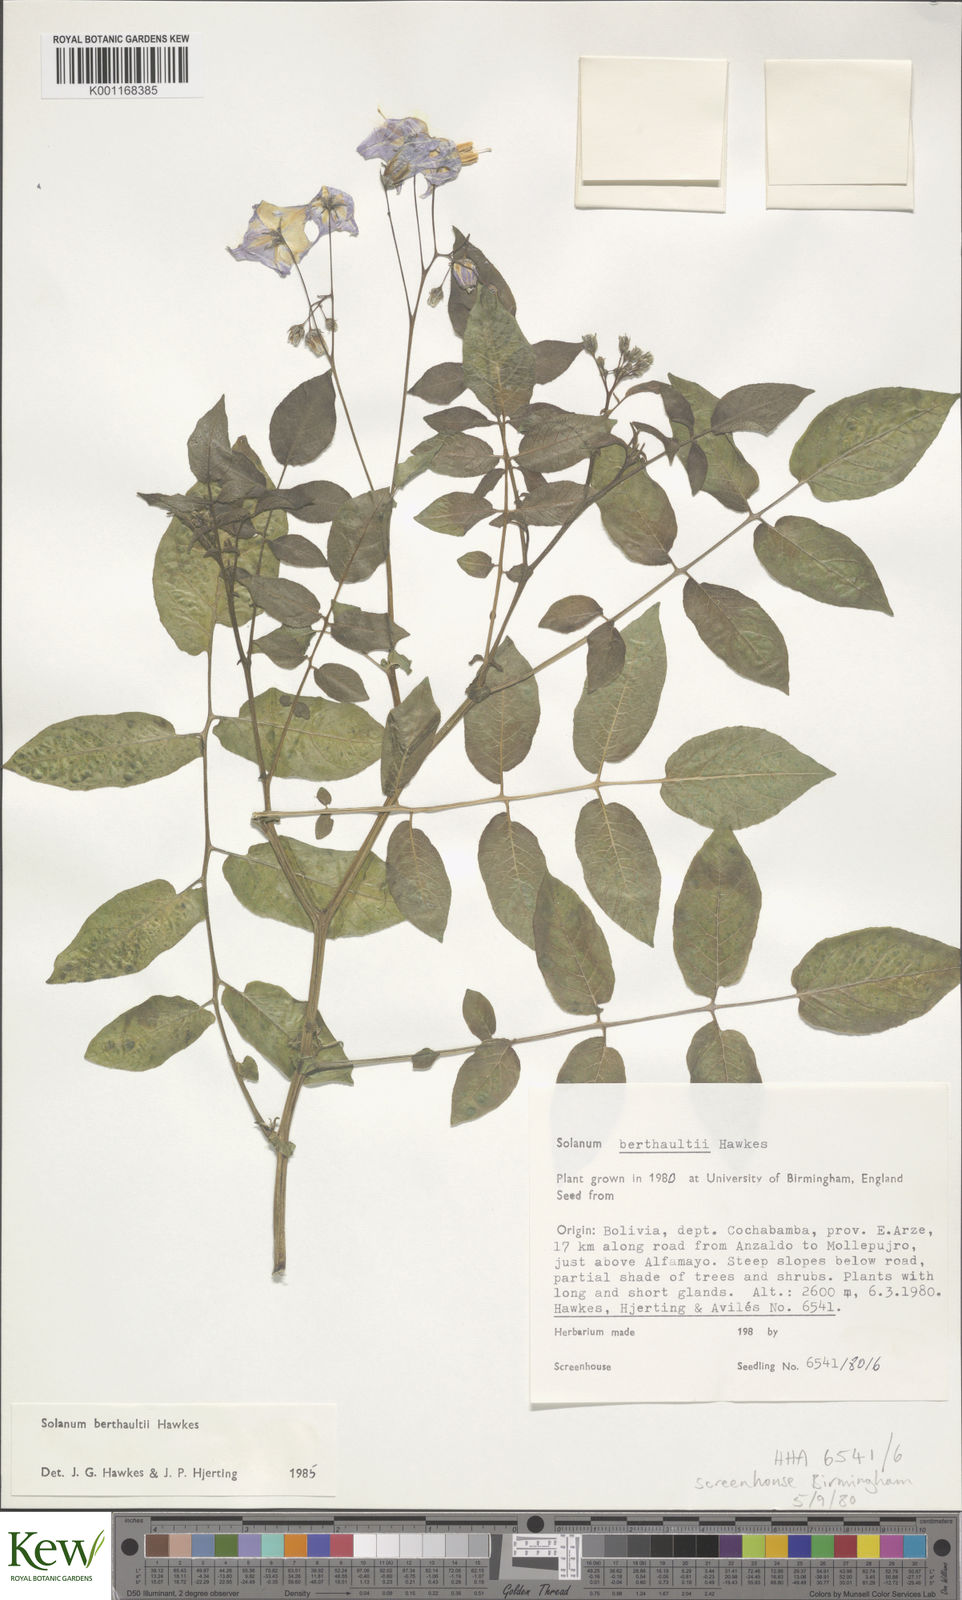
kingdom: Plantae
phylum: Tracheophyta
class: Magnoliopsida
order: Solanales
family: Solanaceae
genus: Solanum
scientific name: Solanum berthaultii
